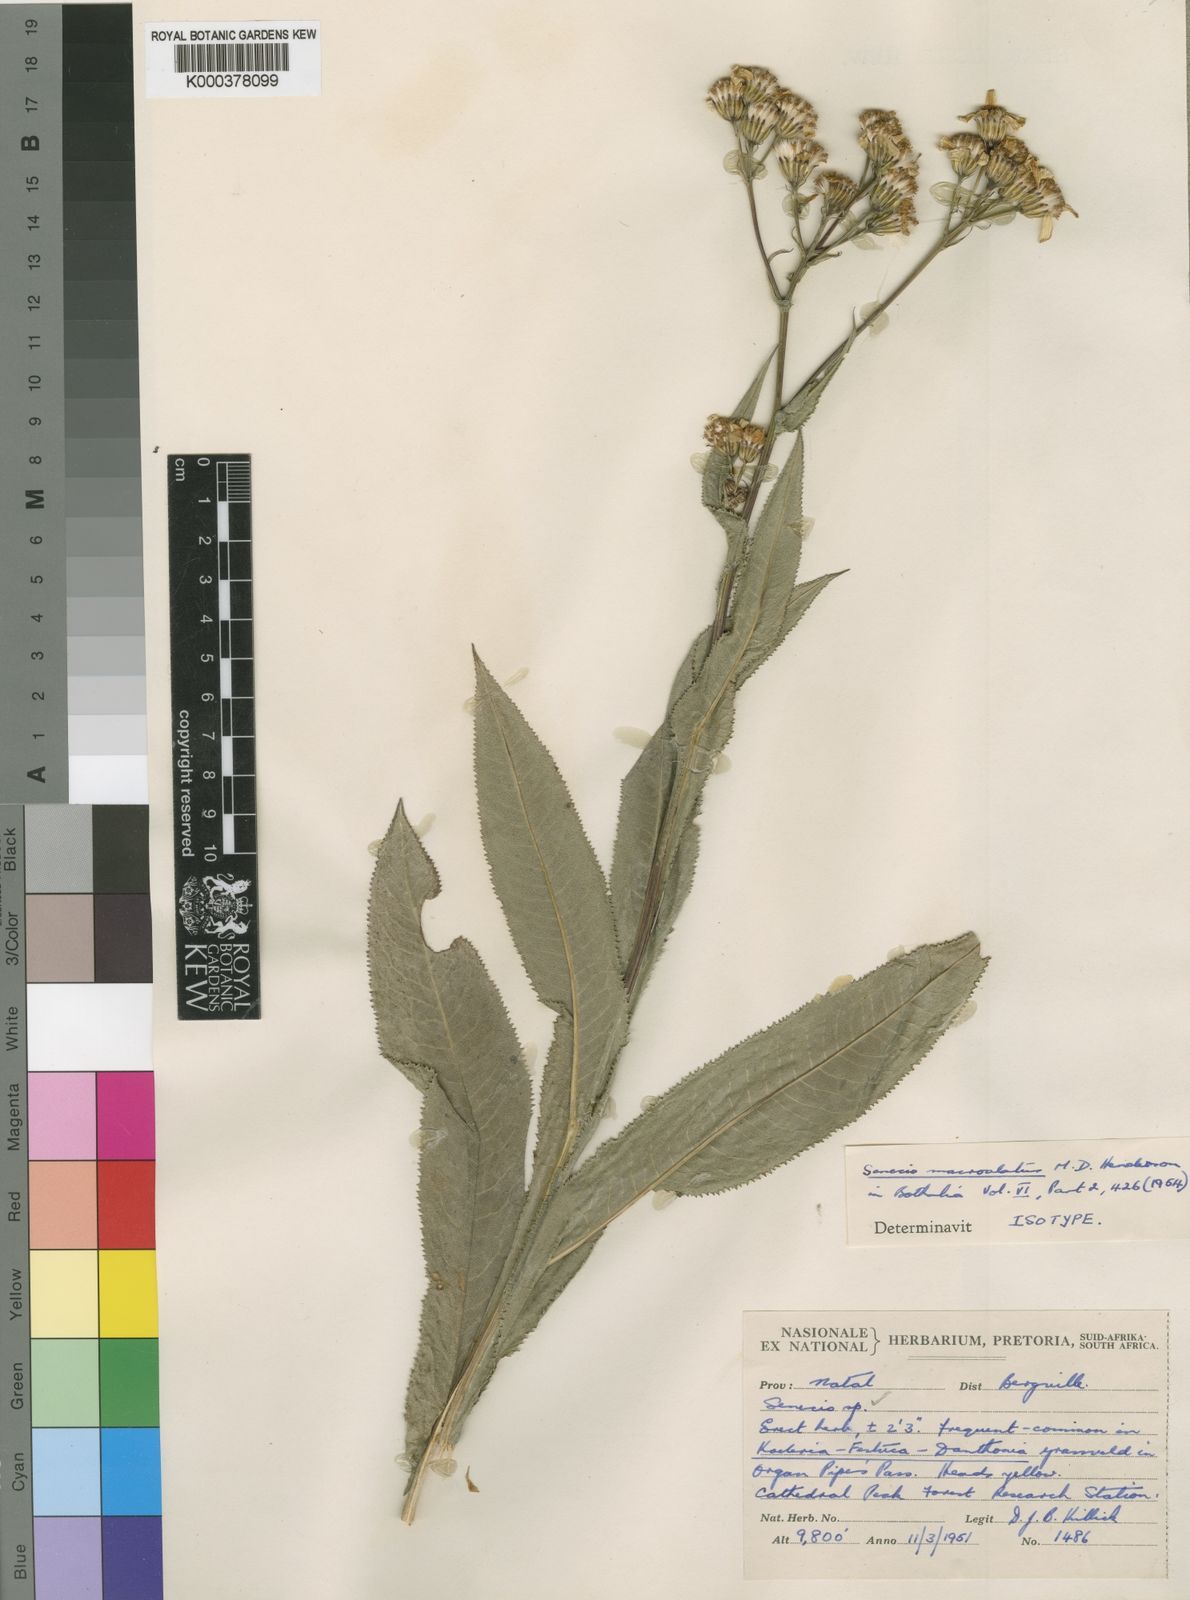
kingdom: Plantae
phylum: Tracheophyta
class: Magnoliopsida
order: Asterales
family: Asteraceae
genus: Senecio
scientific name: Senecio inornatus
